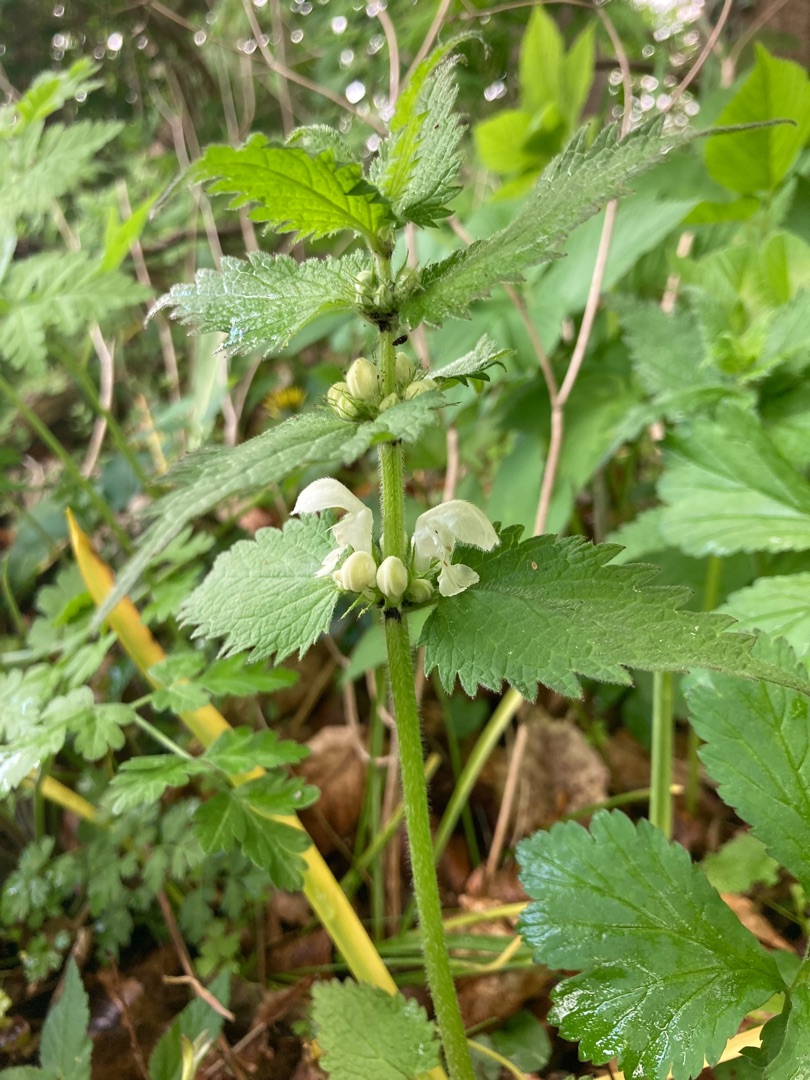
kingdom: Plantae
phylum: Tracheophyta
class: Magnoliopsida
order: Lamiales
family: Lamiaceae
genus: Lamium
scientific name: Lamium album
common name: Døvnælde
